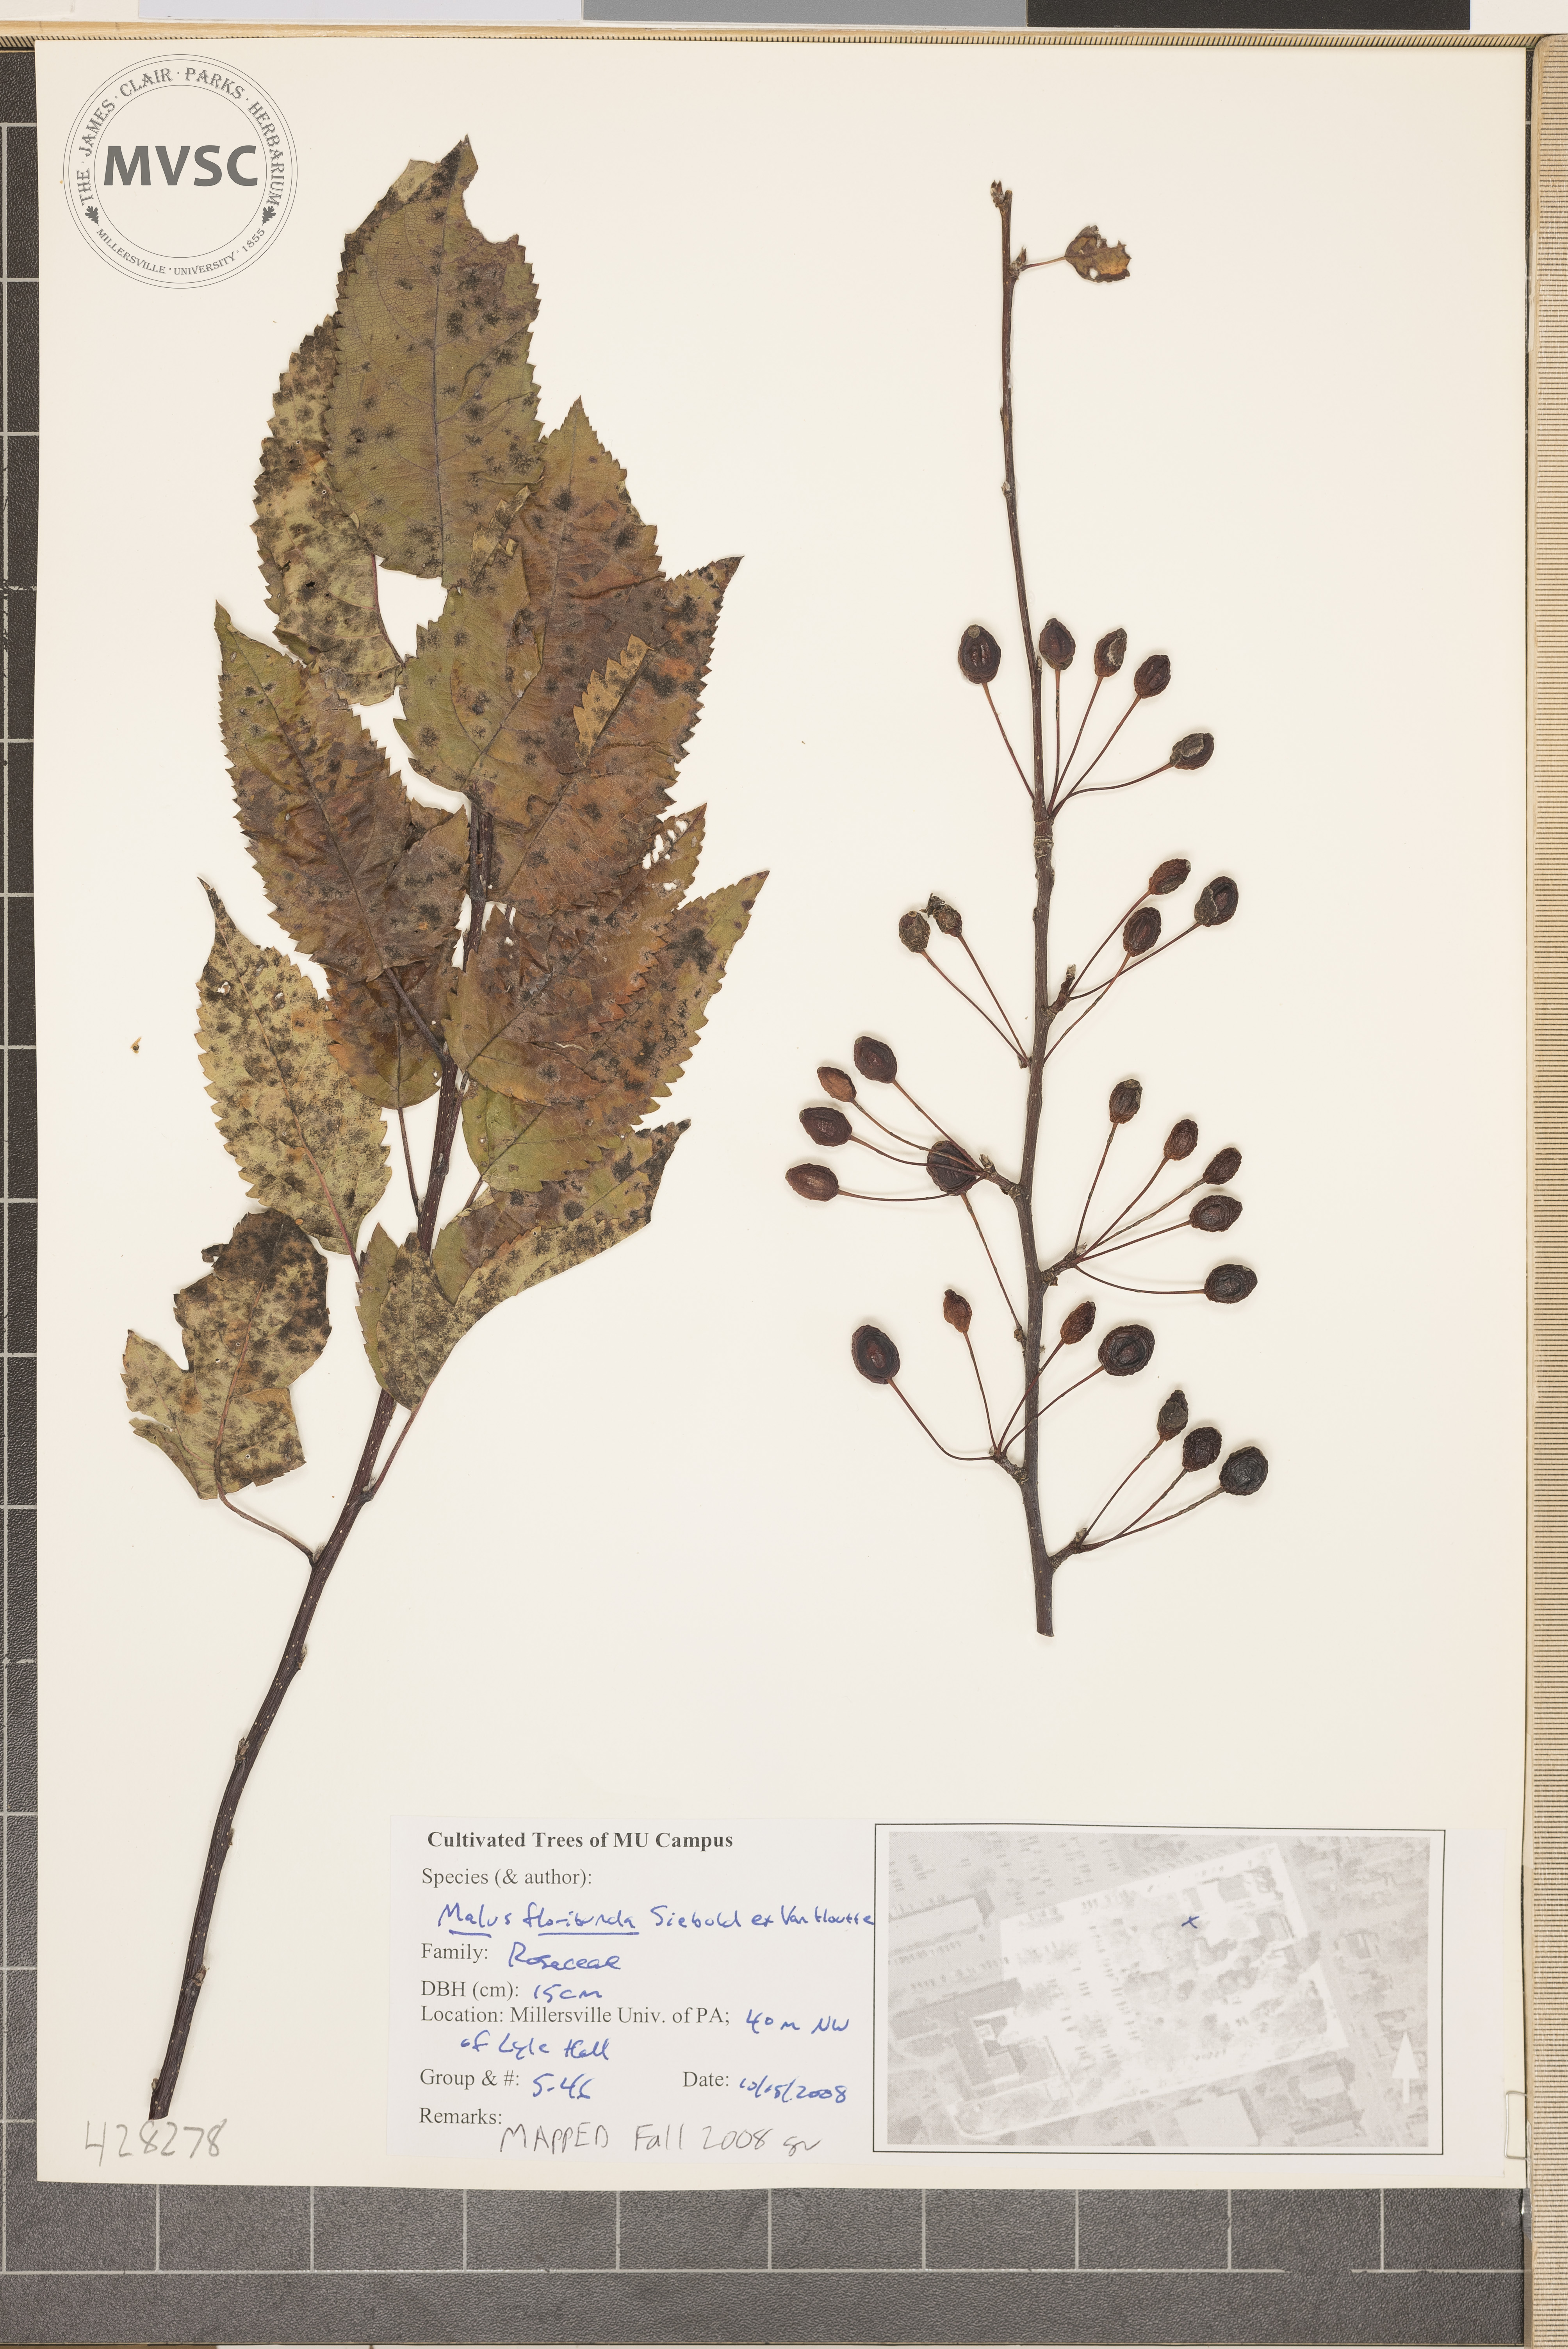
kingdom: Plantae
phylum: Tracheophyta
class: Magnoliopsida
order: Rosales
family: Rosaceae
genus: Malus
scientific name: Malus floribunda
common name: Japanese Flowering Crabapple
